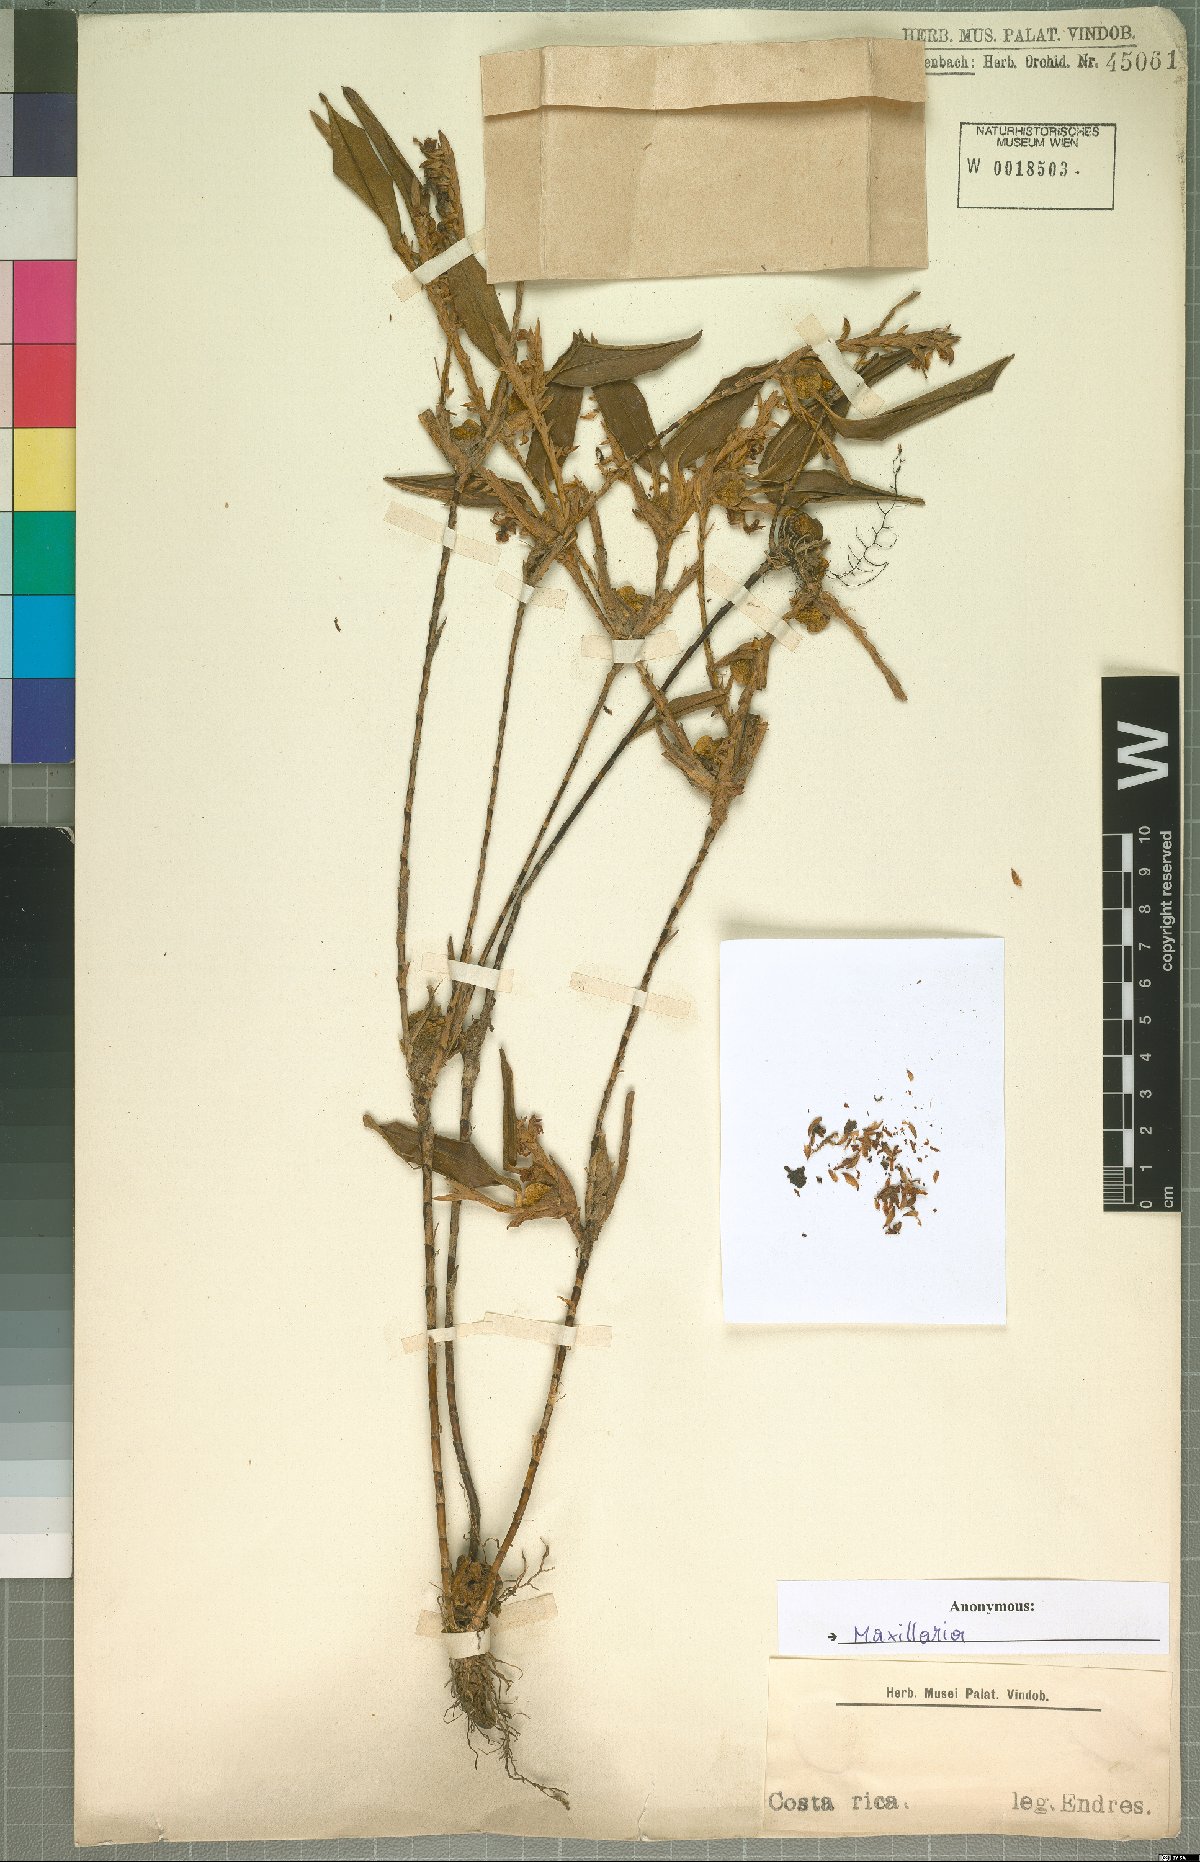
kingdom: Plantae
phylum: Tracheophyta
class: Liliopsida
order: Asparagales
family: Orchidaceae
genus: Maxillaria
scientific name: Maxillaria
